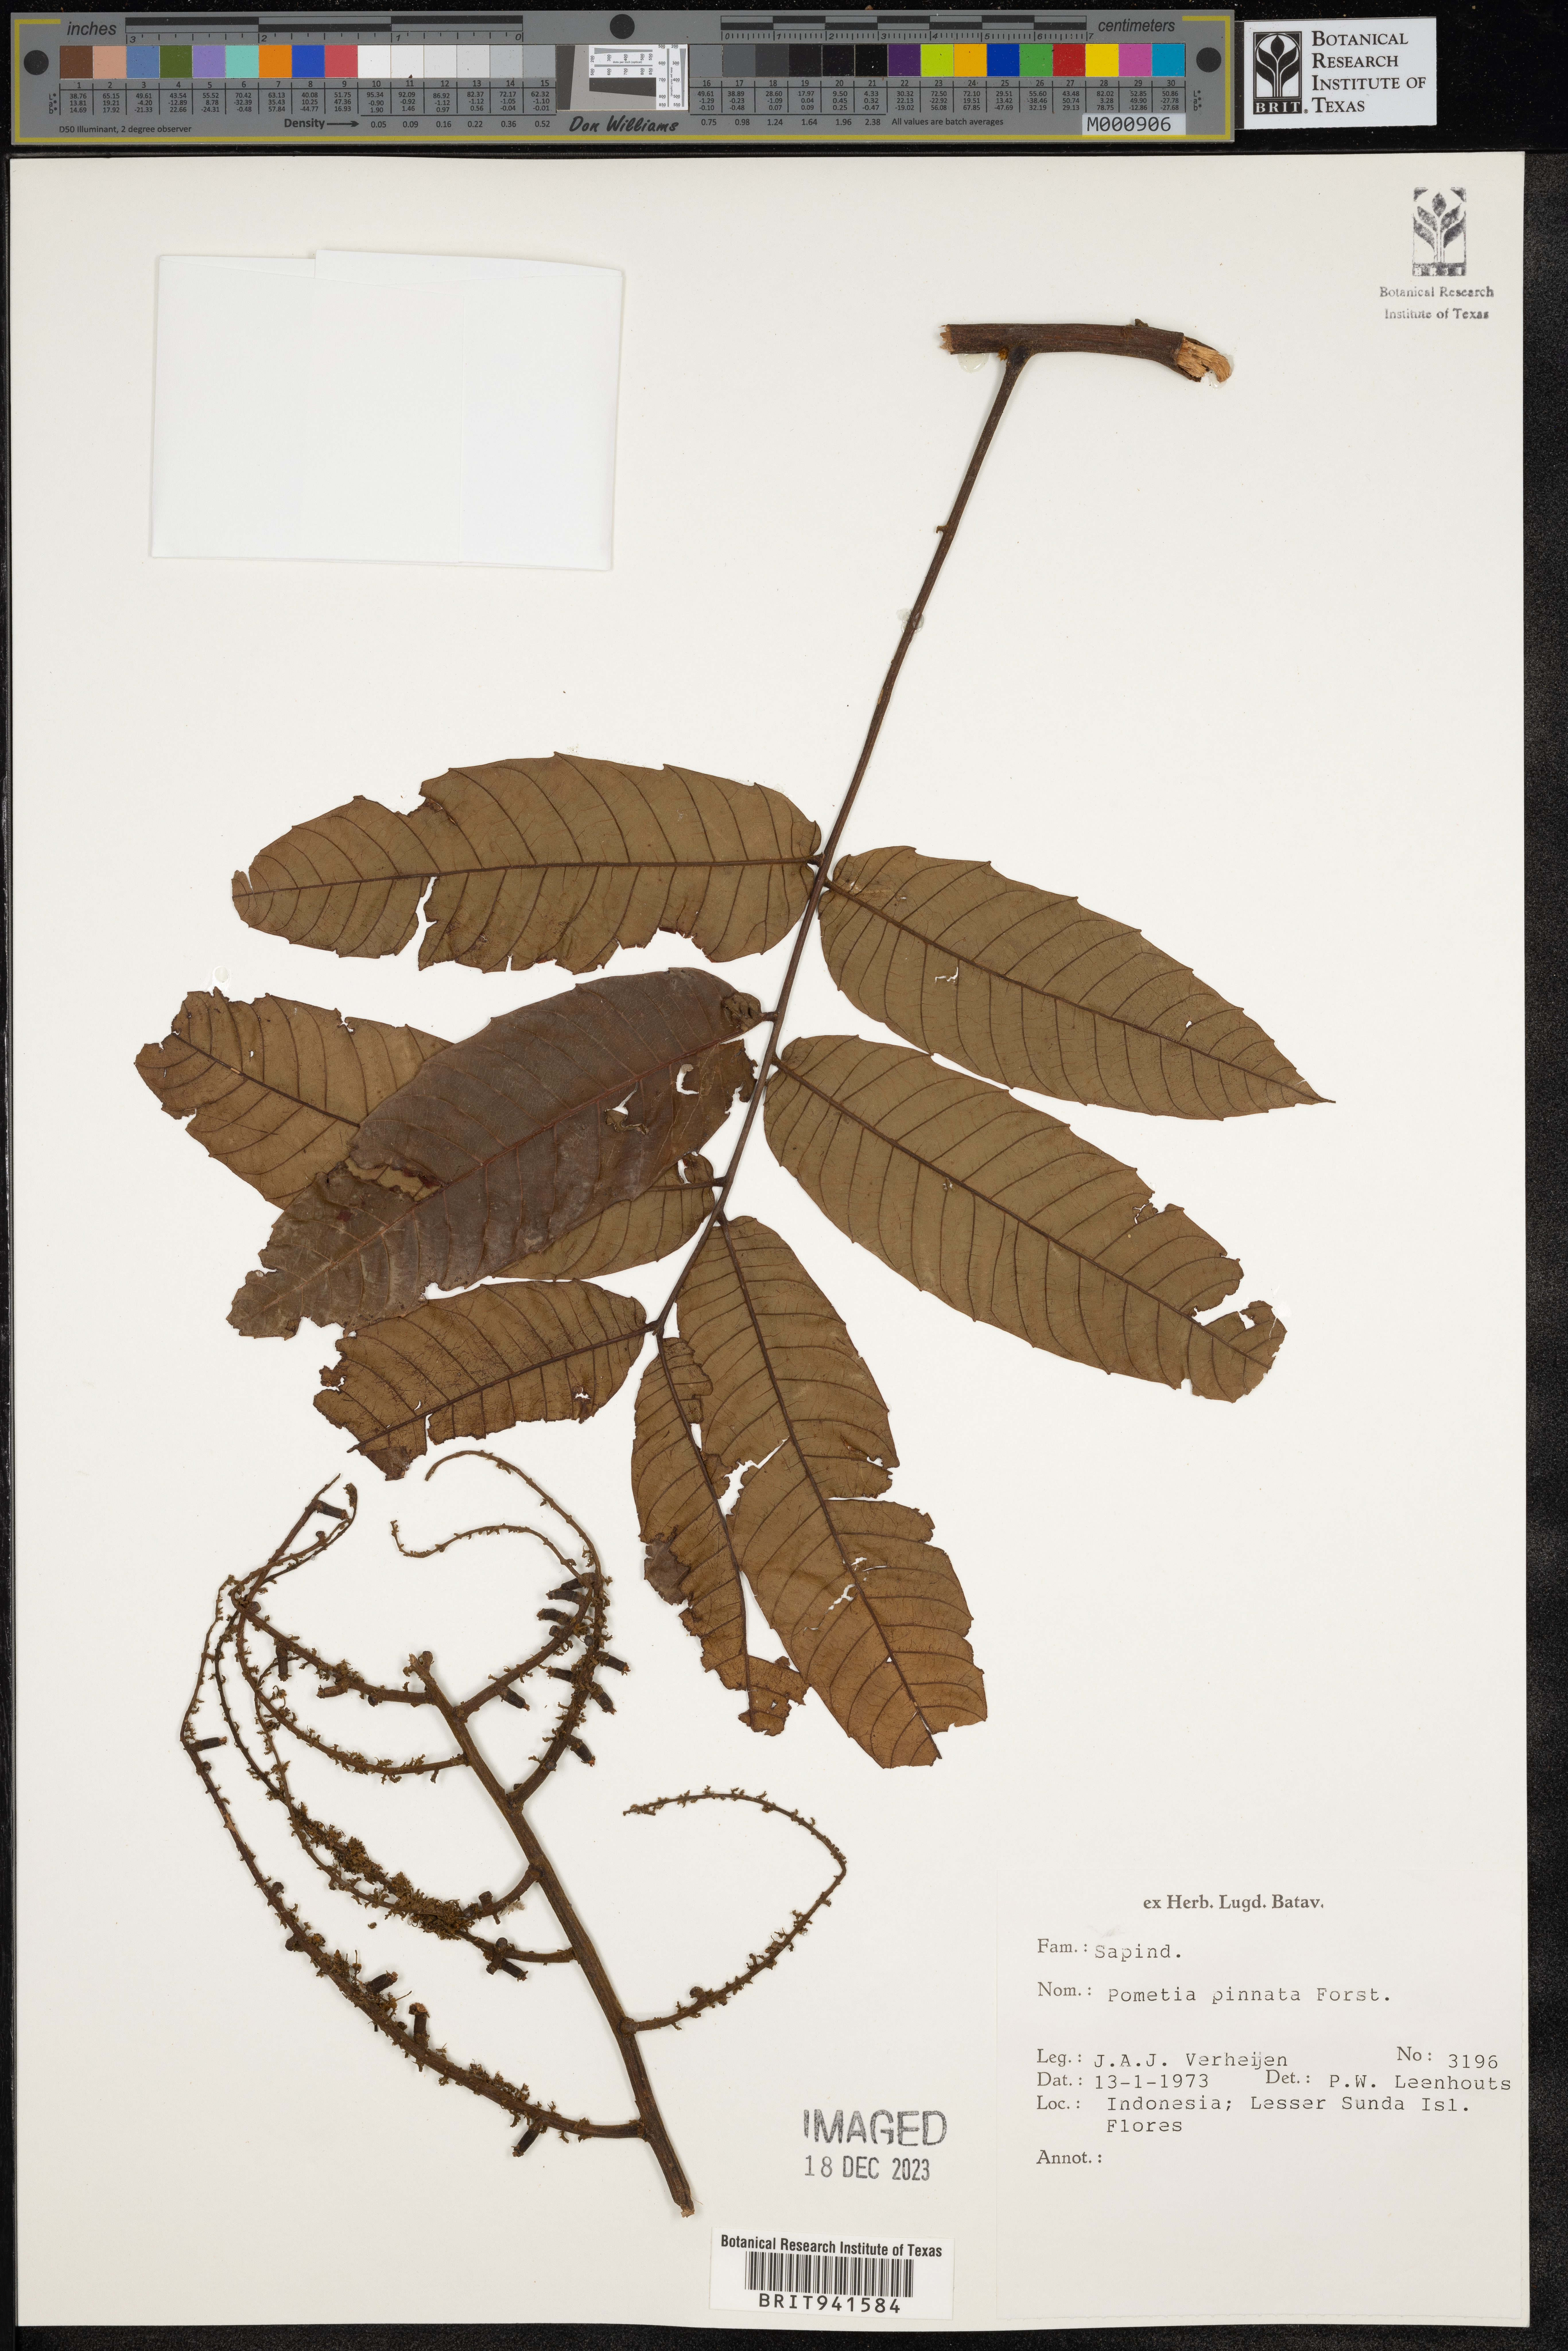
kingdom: Plantae
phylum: Tracheophyta
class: Magnoliopsida
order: Sapindales
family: Sapindaceae
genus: Pometia
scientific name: Pometia
